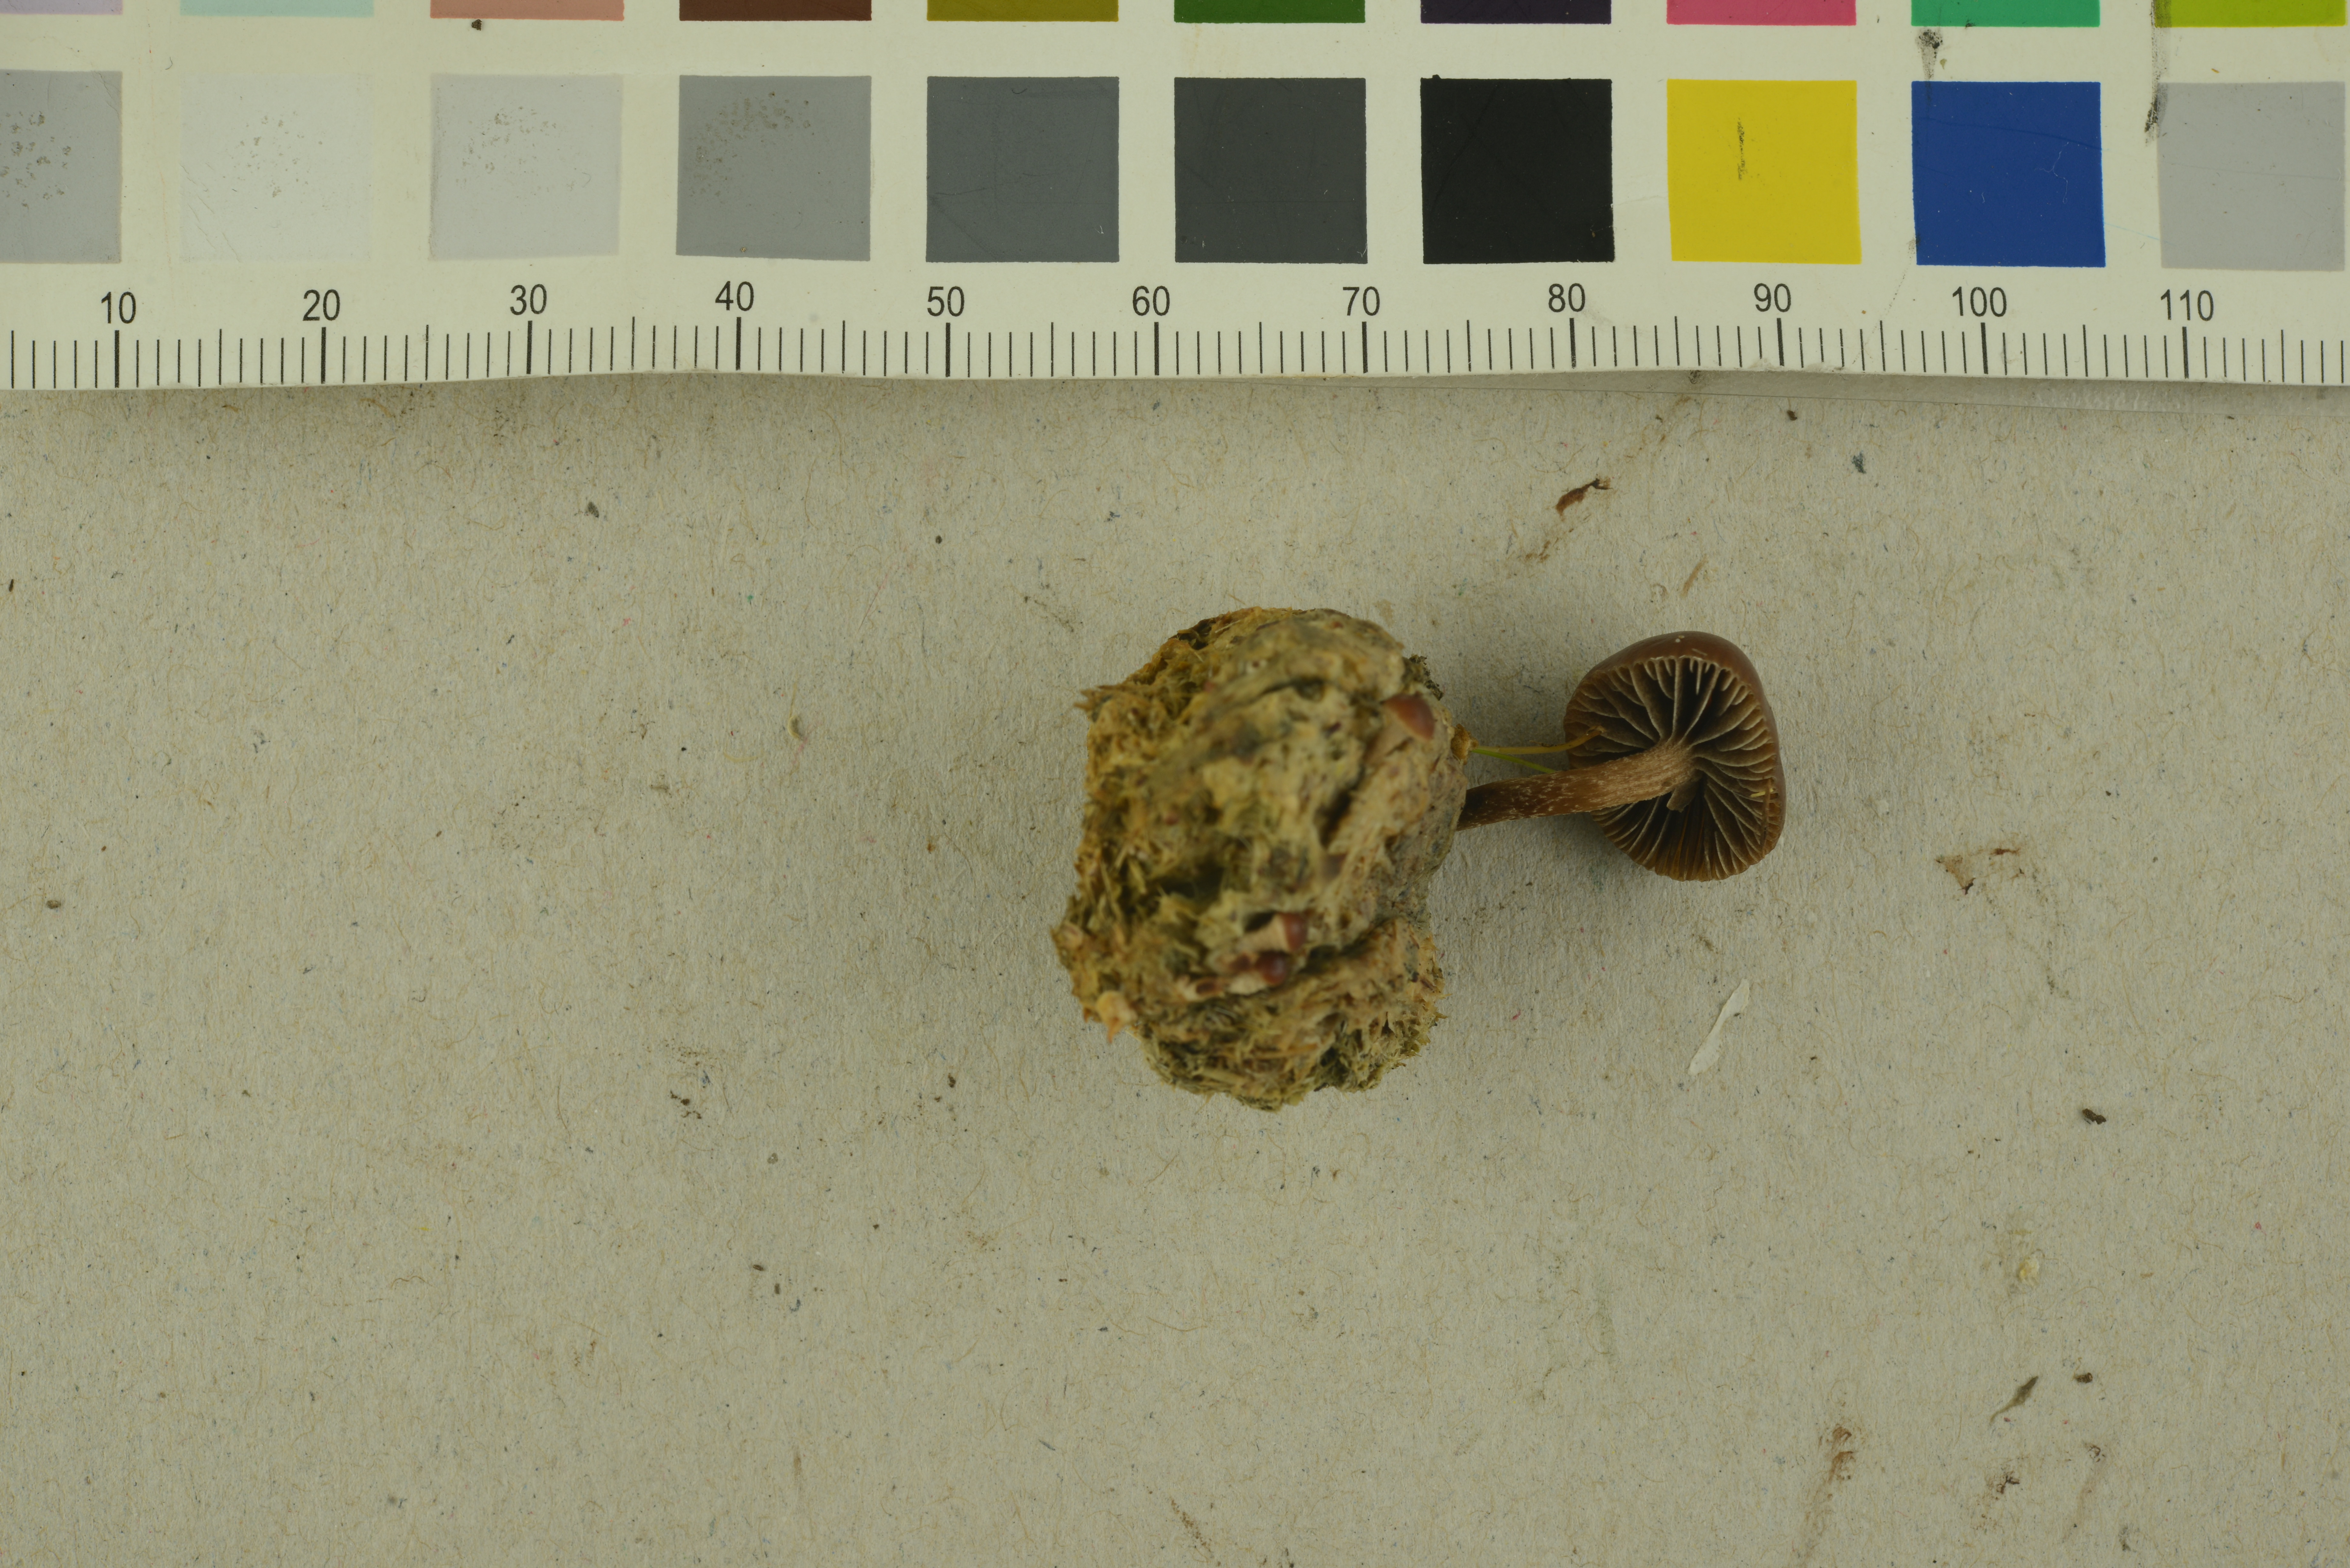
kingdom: Fungi
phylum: Basidiomycota
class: Agaricomycetes
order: Agaricales
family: Strophariaceae
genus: Deconica
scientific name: Deconica coprophila
